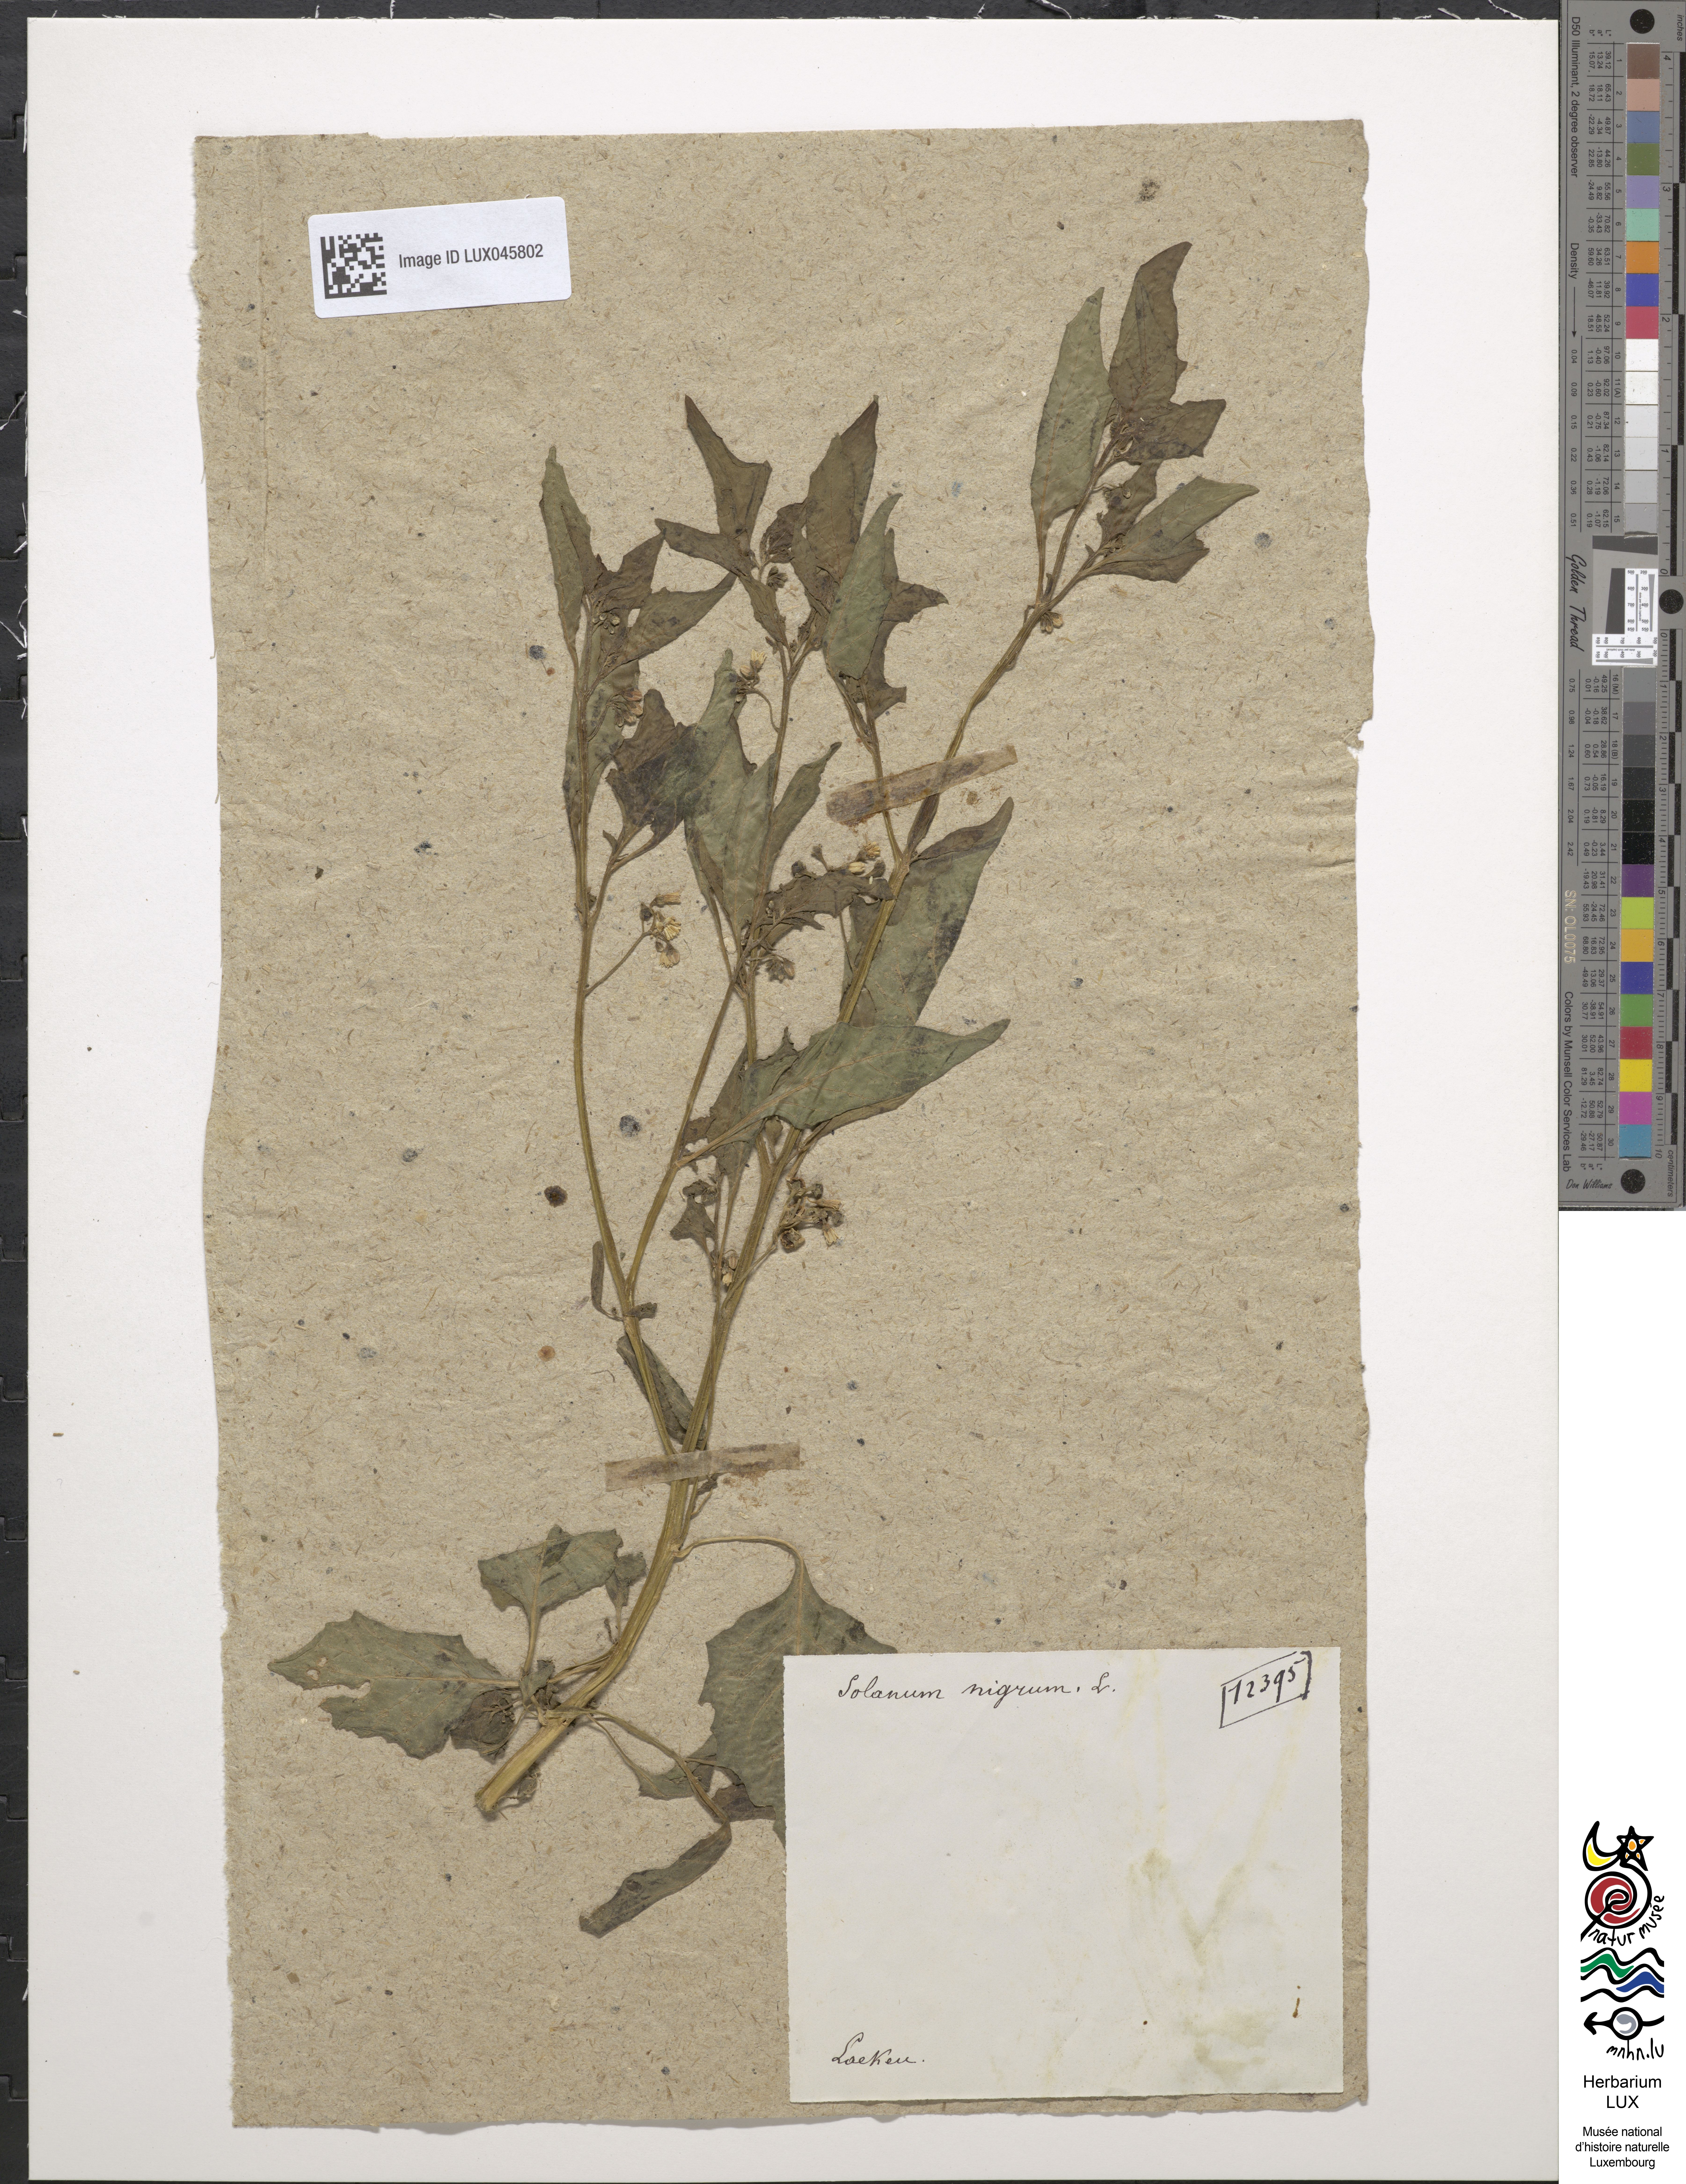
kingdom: Plantae
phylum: Tracheophyta
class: Magnoliopsida
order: Solanales
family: Solanaceae
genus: Solanum
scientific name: Solanum nigrum
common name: Black nightshade
